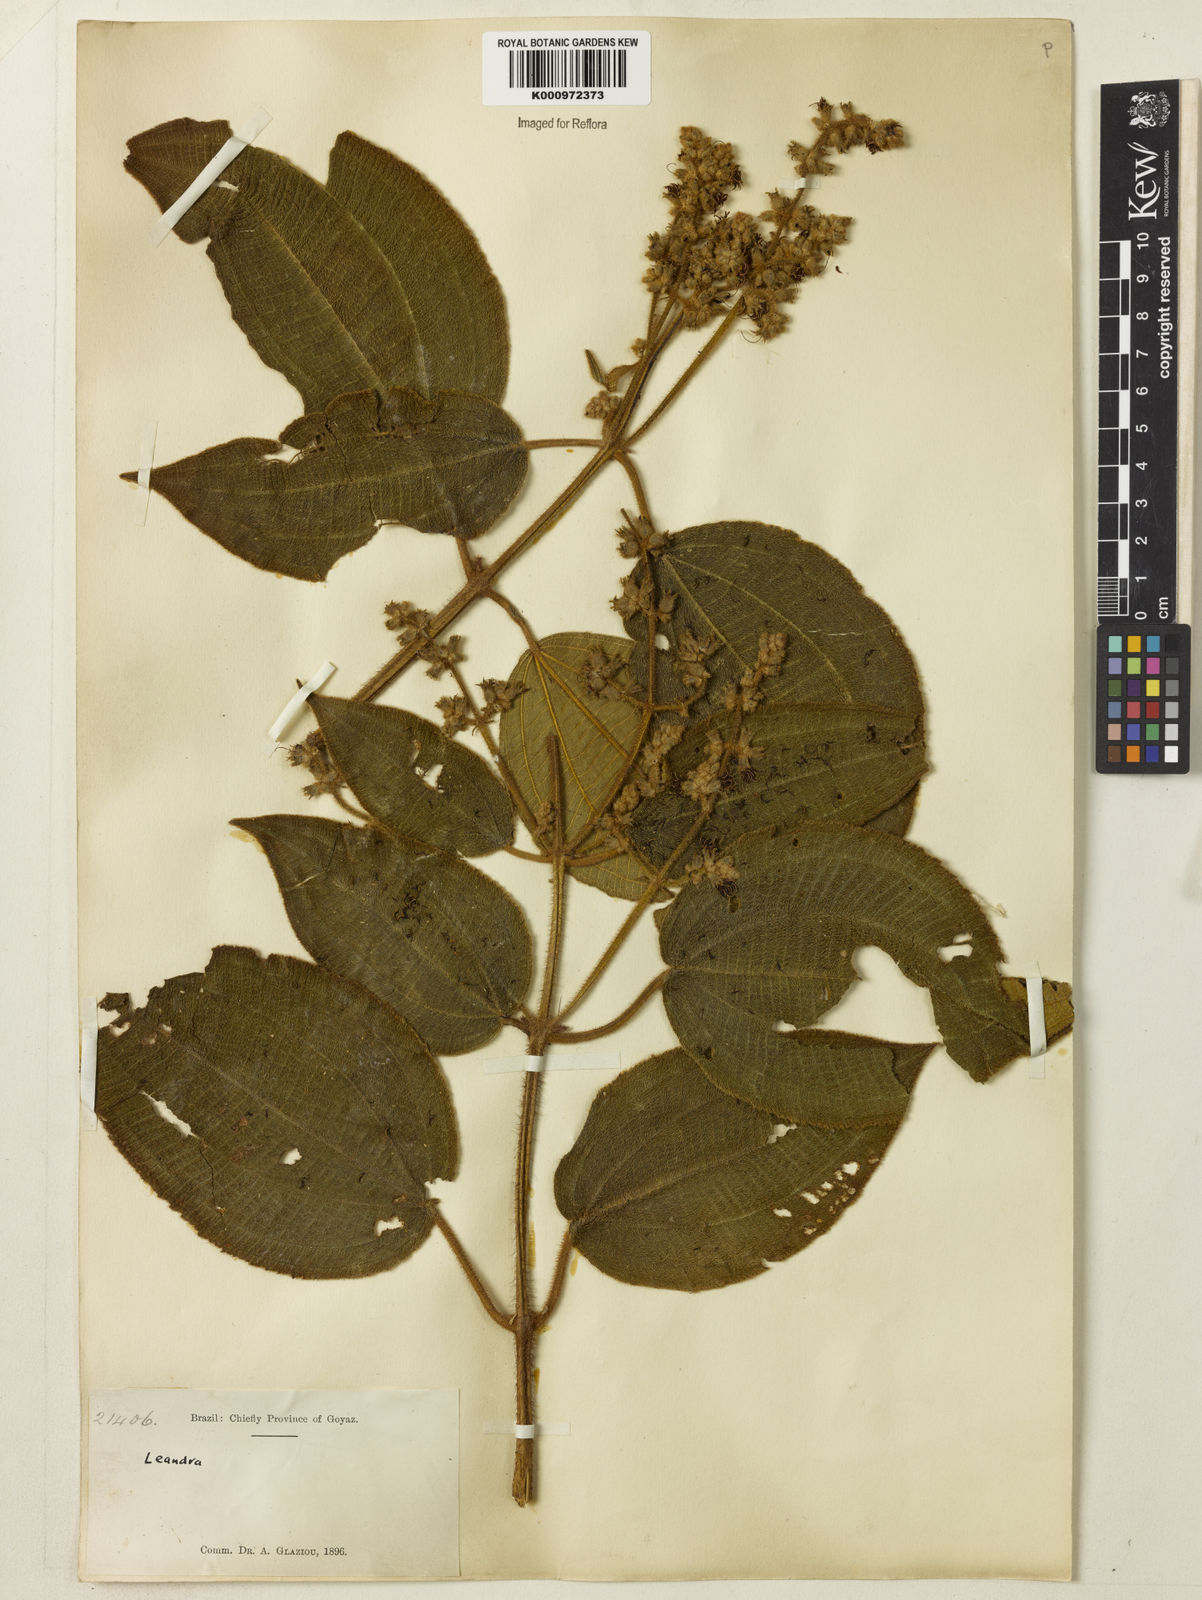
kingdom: Plantae
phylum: Tracheophyta
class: Magnoliopsida
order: Myrtales
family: Melastomataceae
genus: Miconia
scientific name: Miconia
